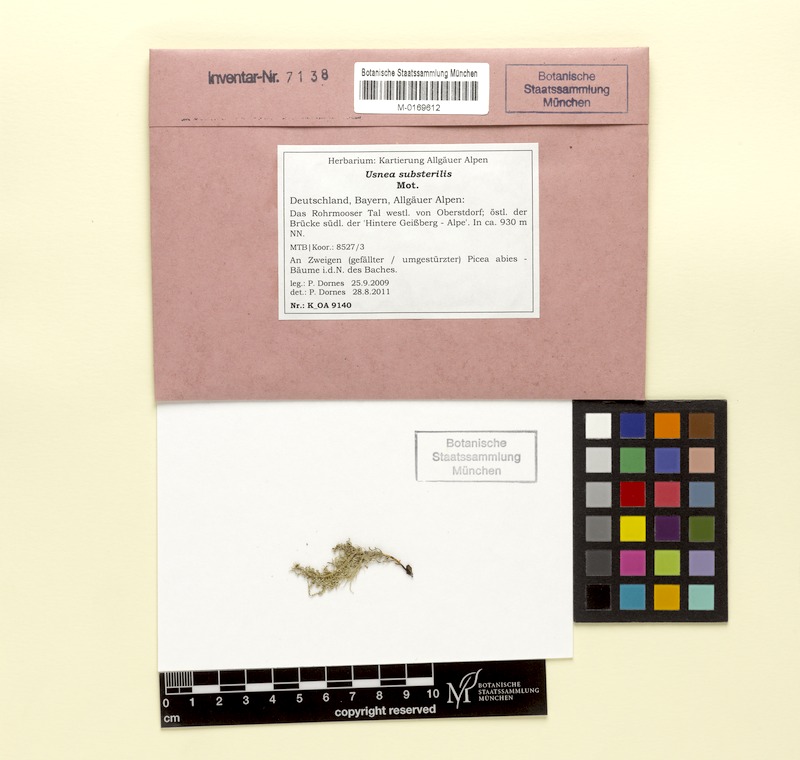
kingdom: Fungi
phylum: Ascomycota
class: Lecanoromycetes
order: Lecanorales
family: Parmeliaceae
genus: Usnea
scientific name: Usnea substerilis
